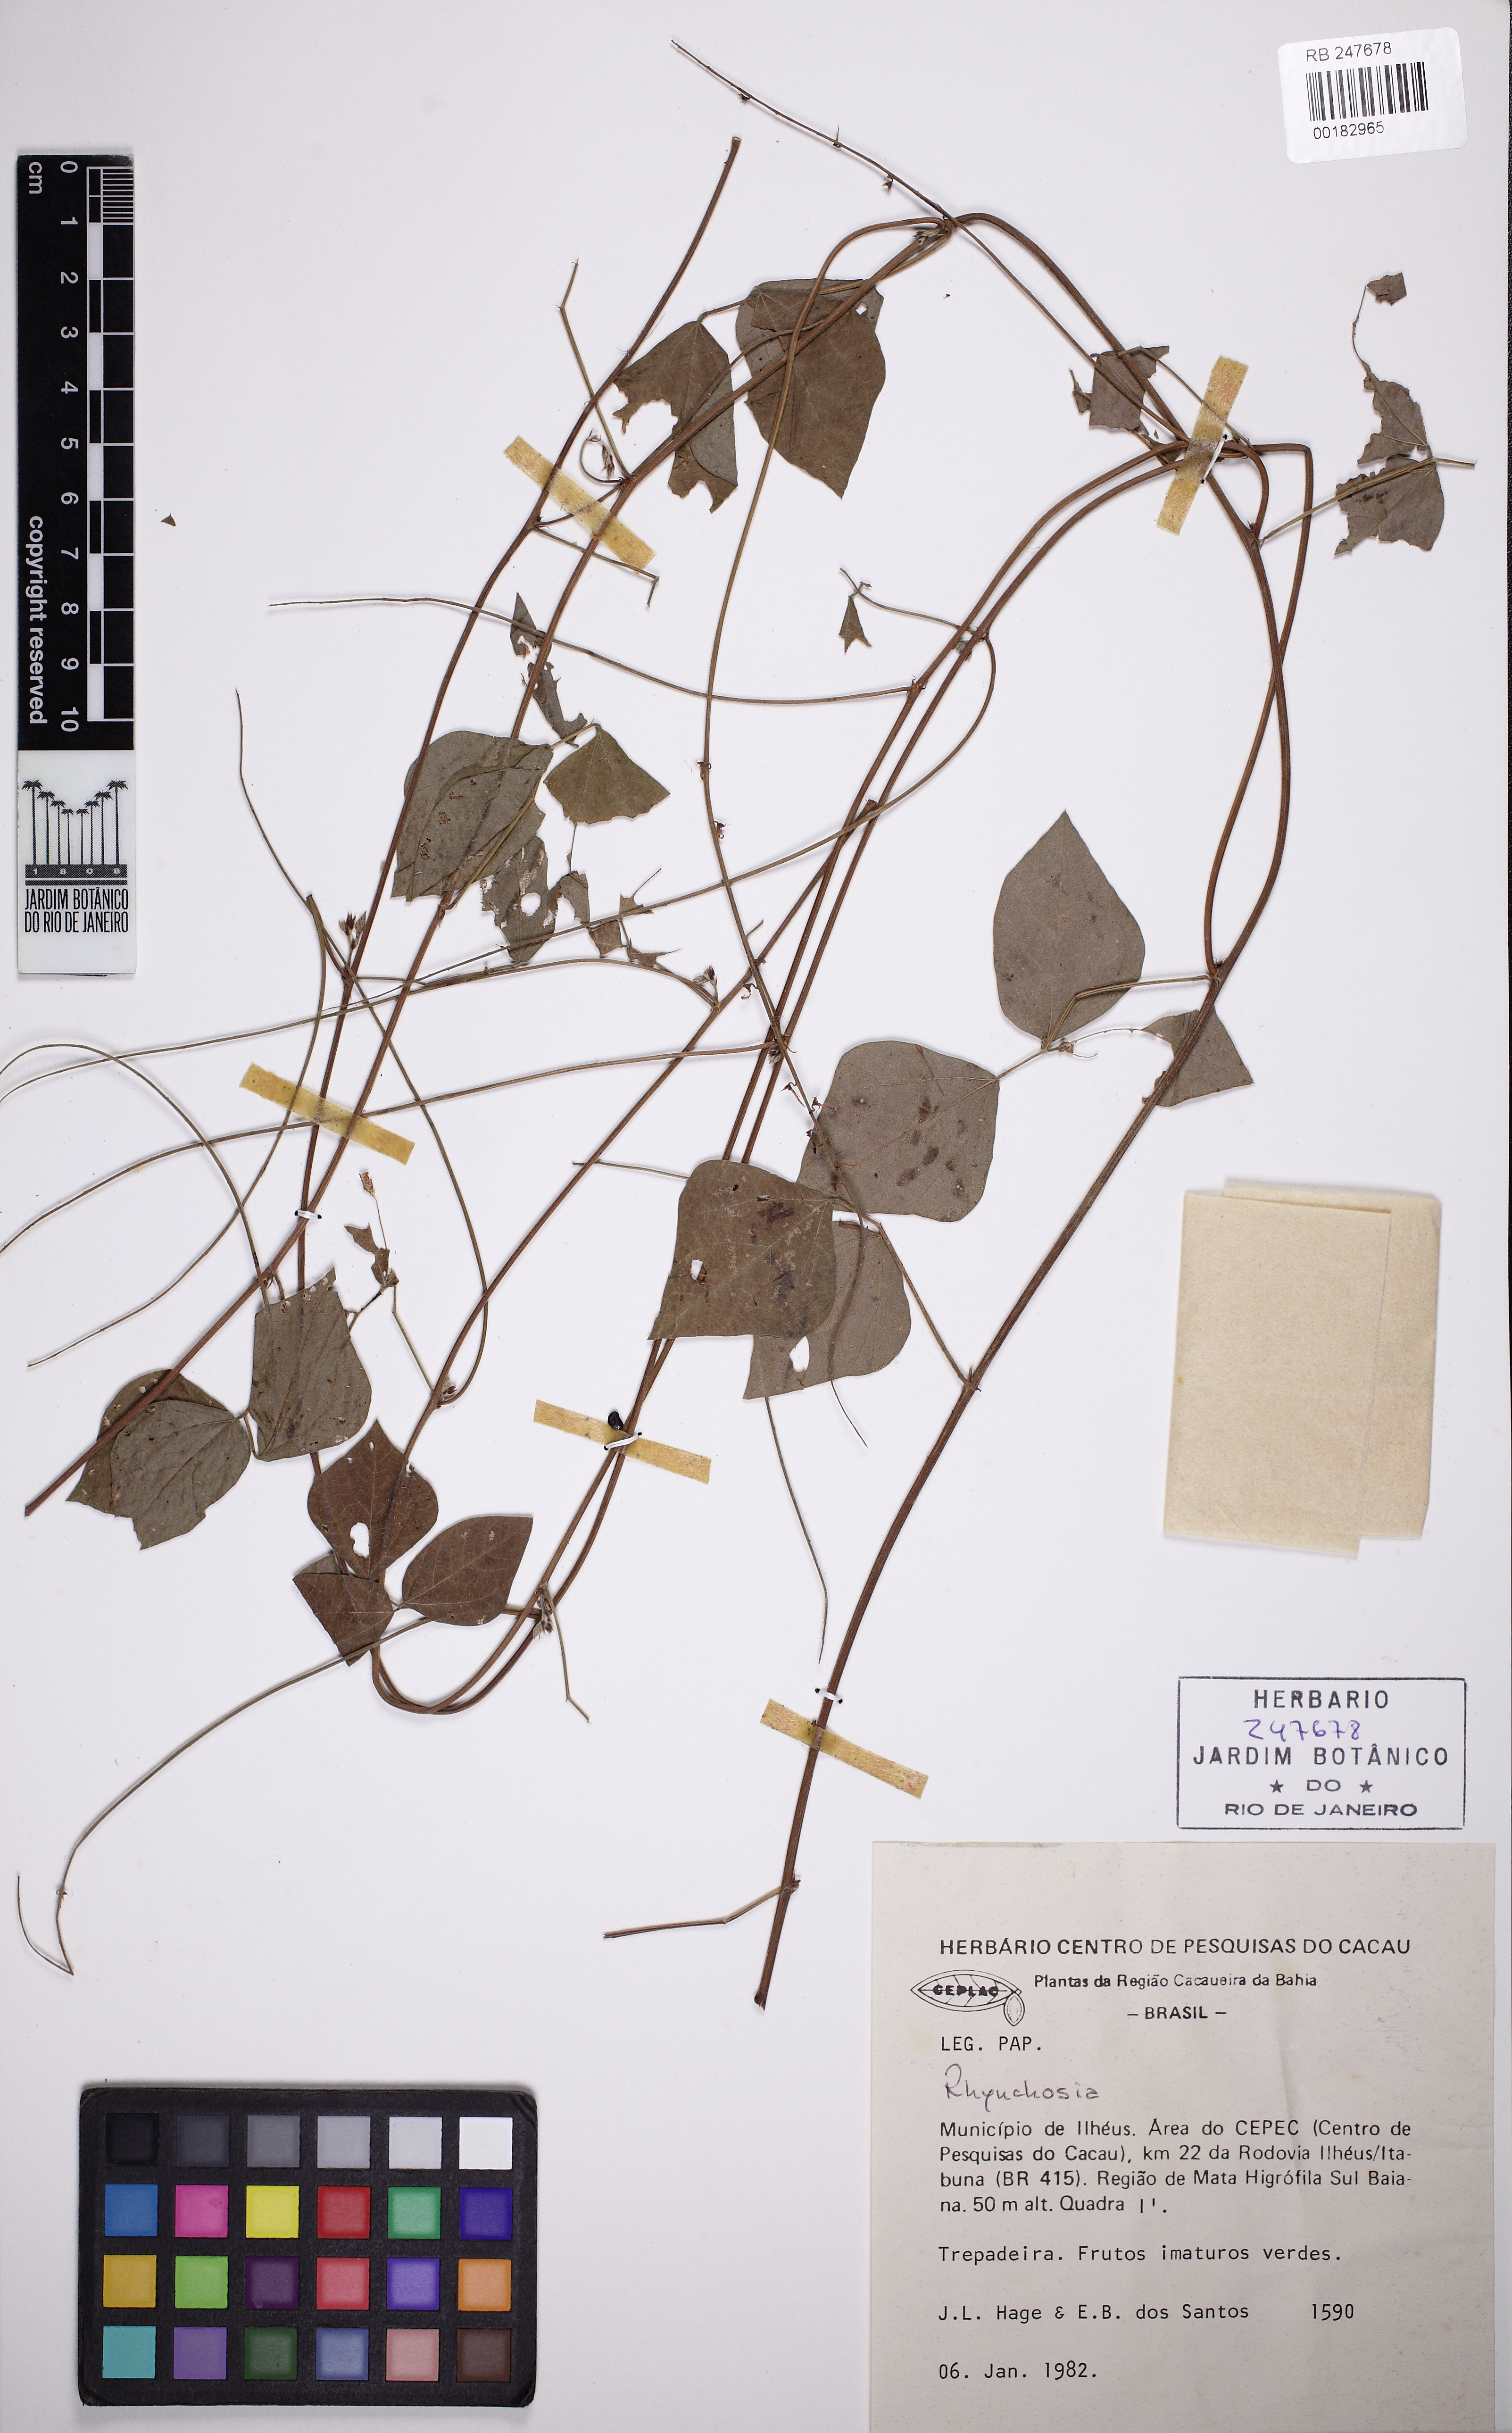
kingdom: Plantae
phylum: Tracheophyta
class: Magnoliopsida
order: Fabales
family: Fabaceae
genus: Rhynchosia
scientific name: Rhynchosia
